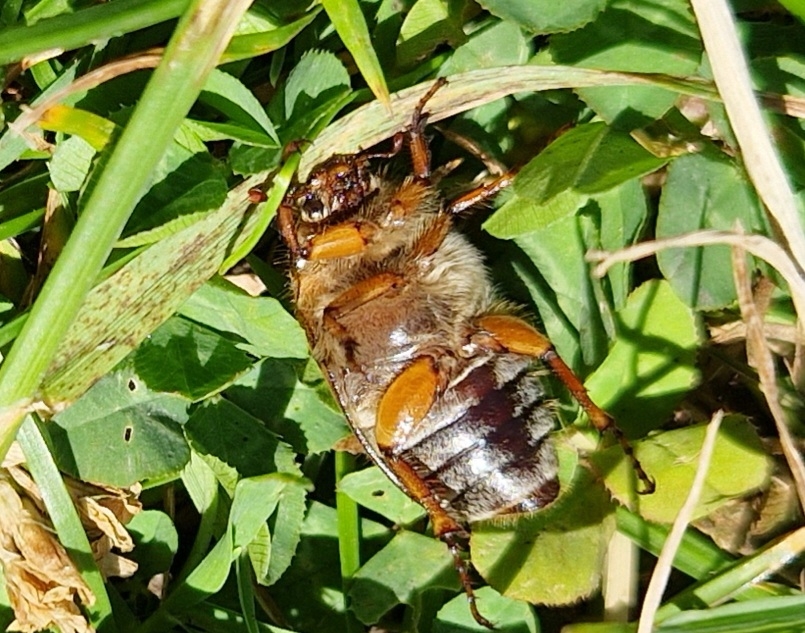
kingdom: Animalia
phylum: Arthropoda
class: Insecta
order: Coleoptera
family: Scarabaeidae
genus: Amphimallon
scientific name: Amphimallon solstitiale
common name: Sankthansoldenborre
